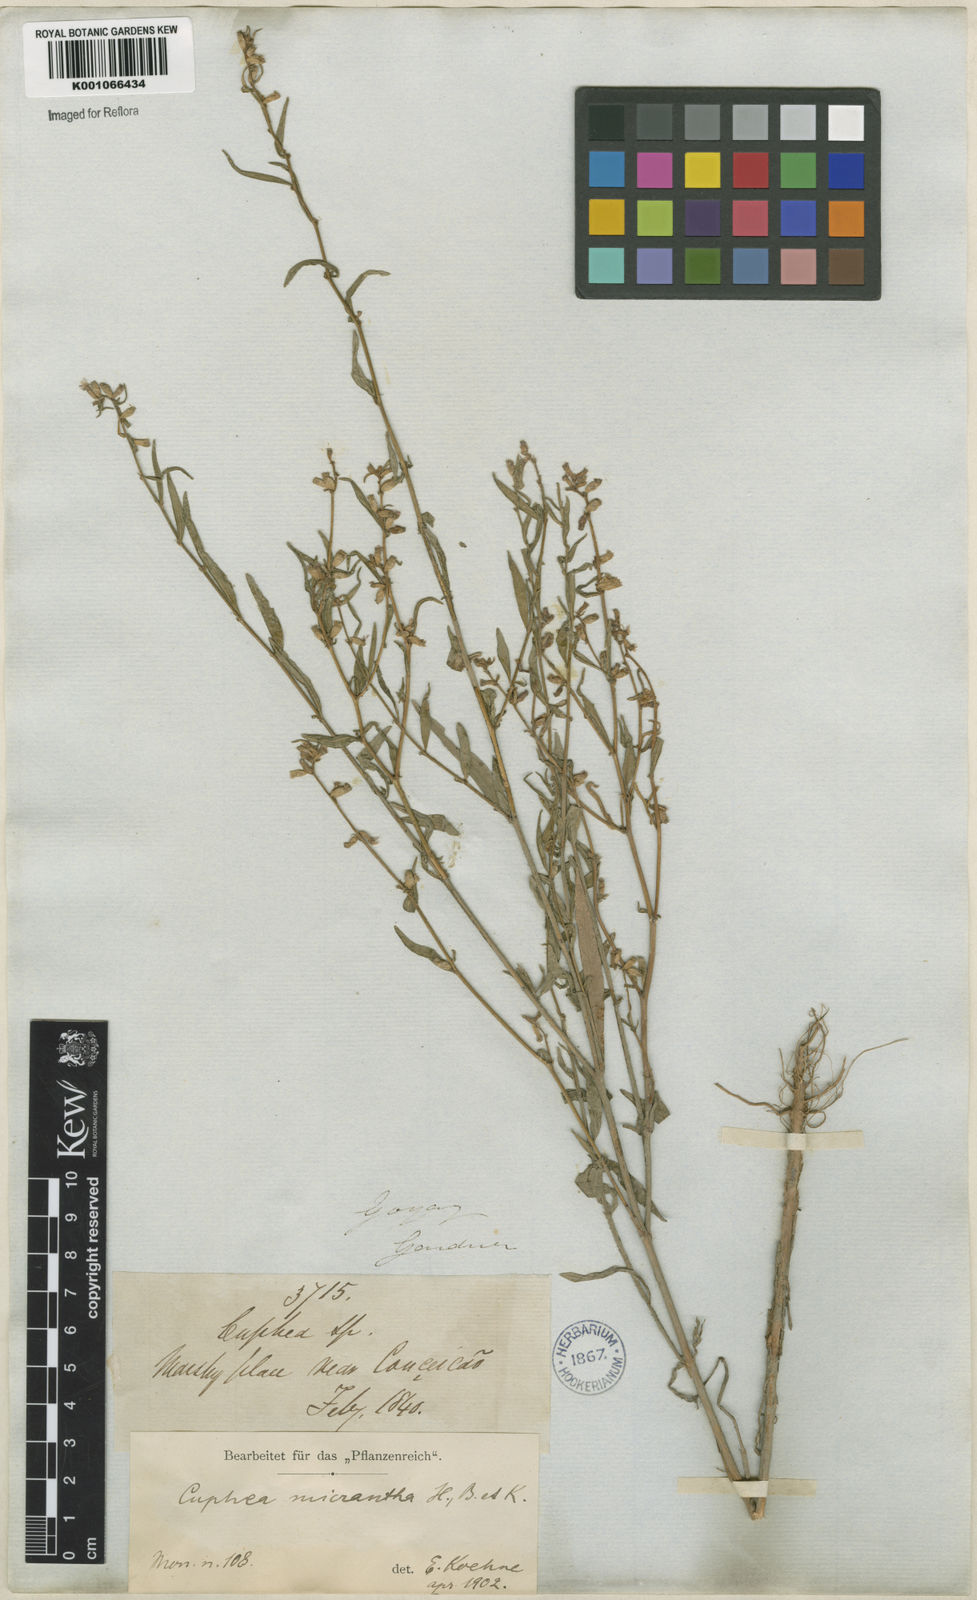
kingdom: Plantae
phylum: Tracheophyta
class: Magnoliopsida
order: Myrtales
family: Lythraceae
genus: Cuphea
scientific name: Cuphea micrantha
